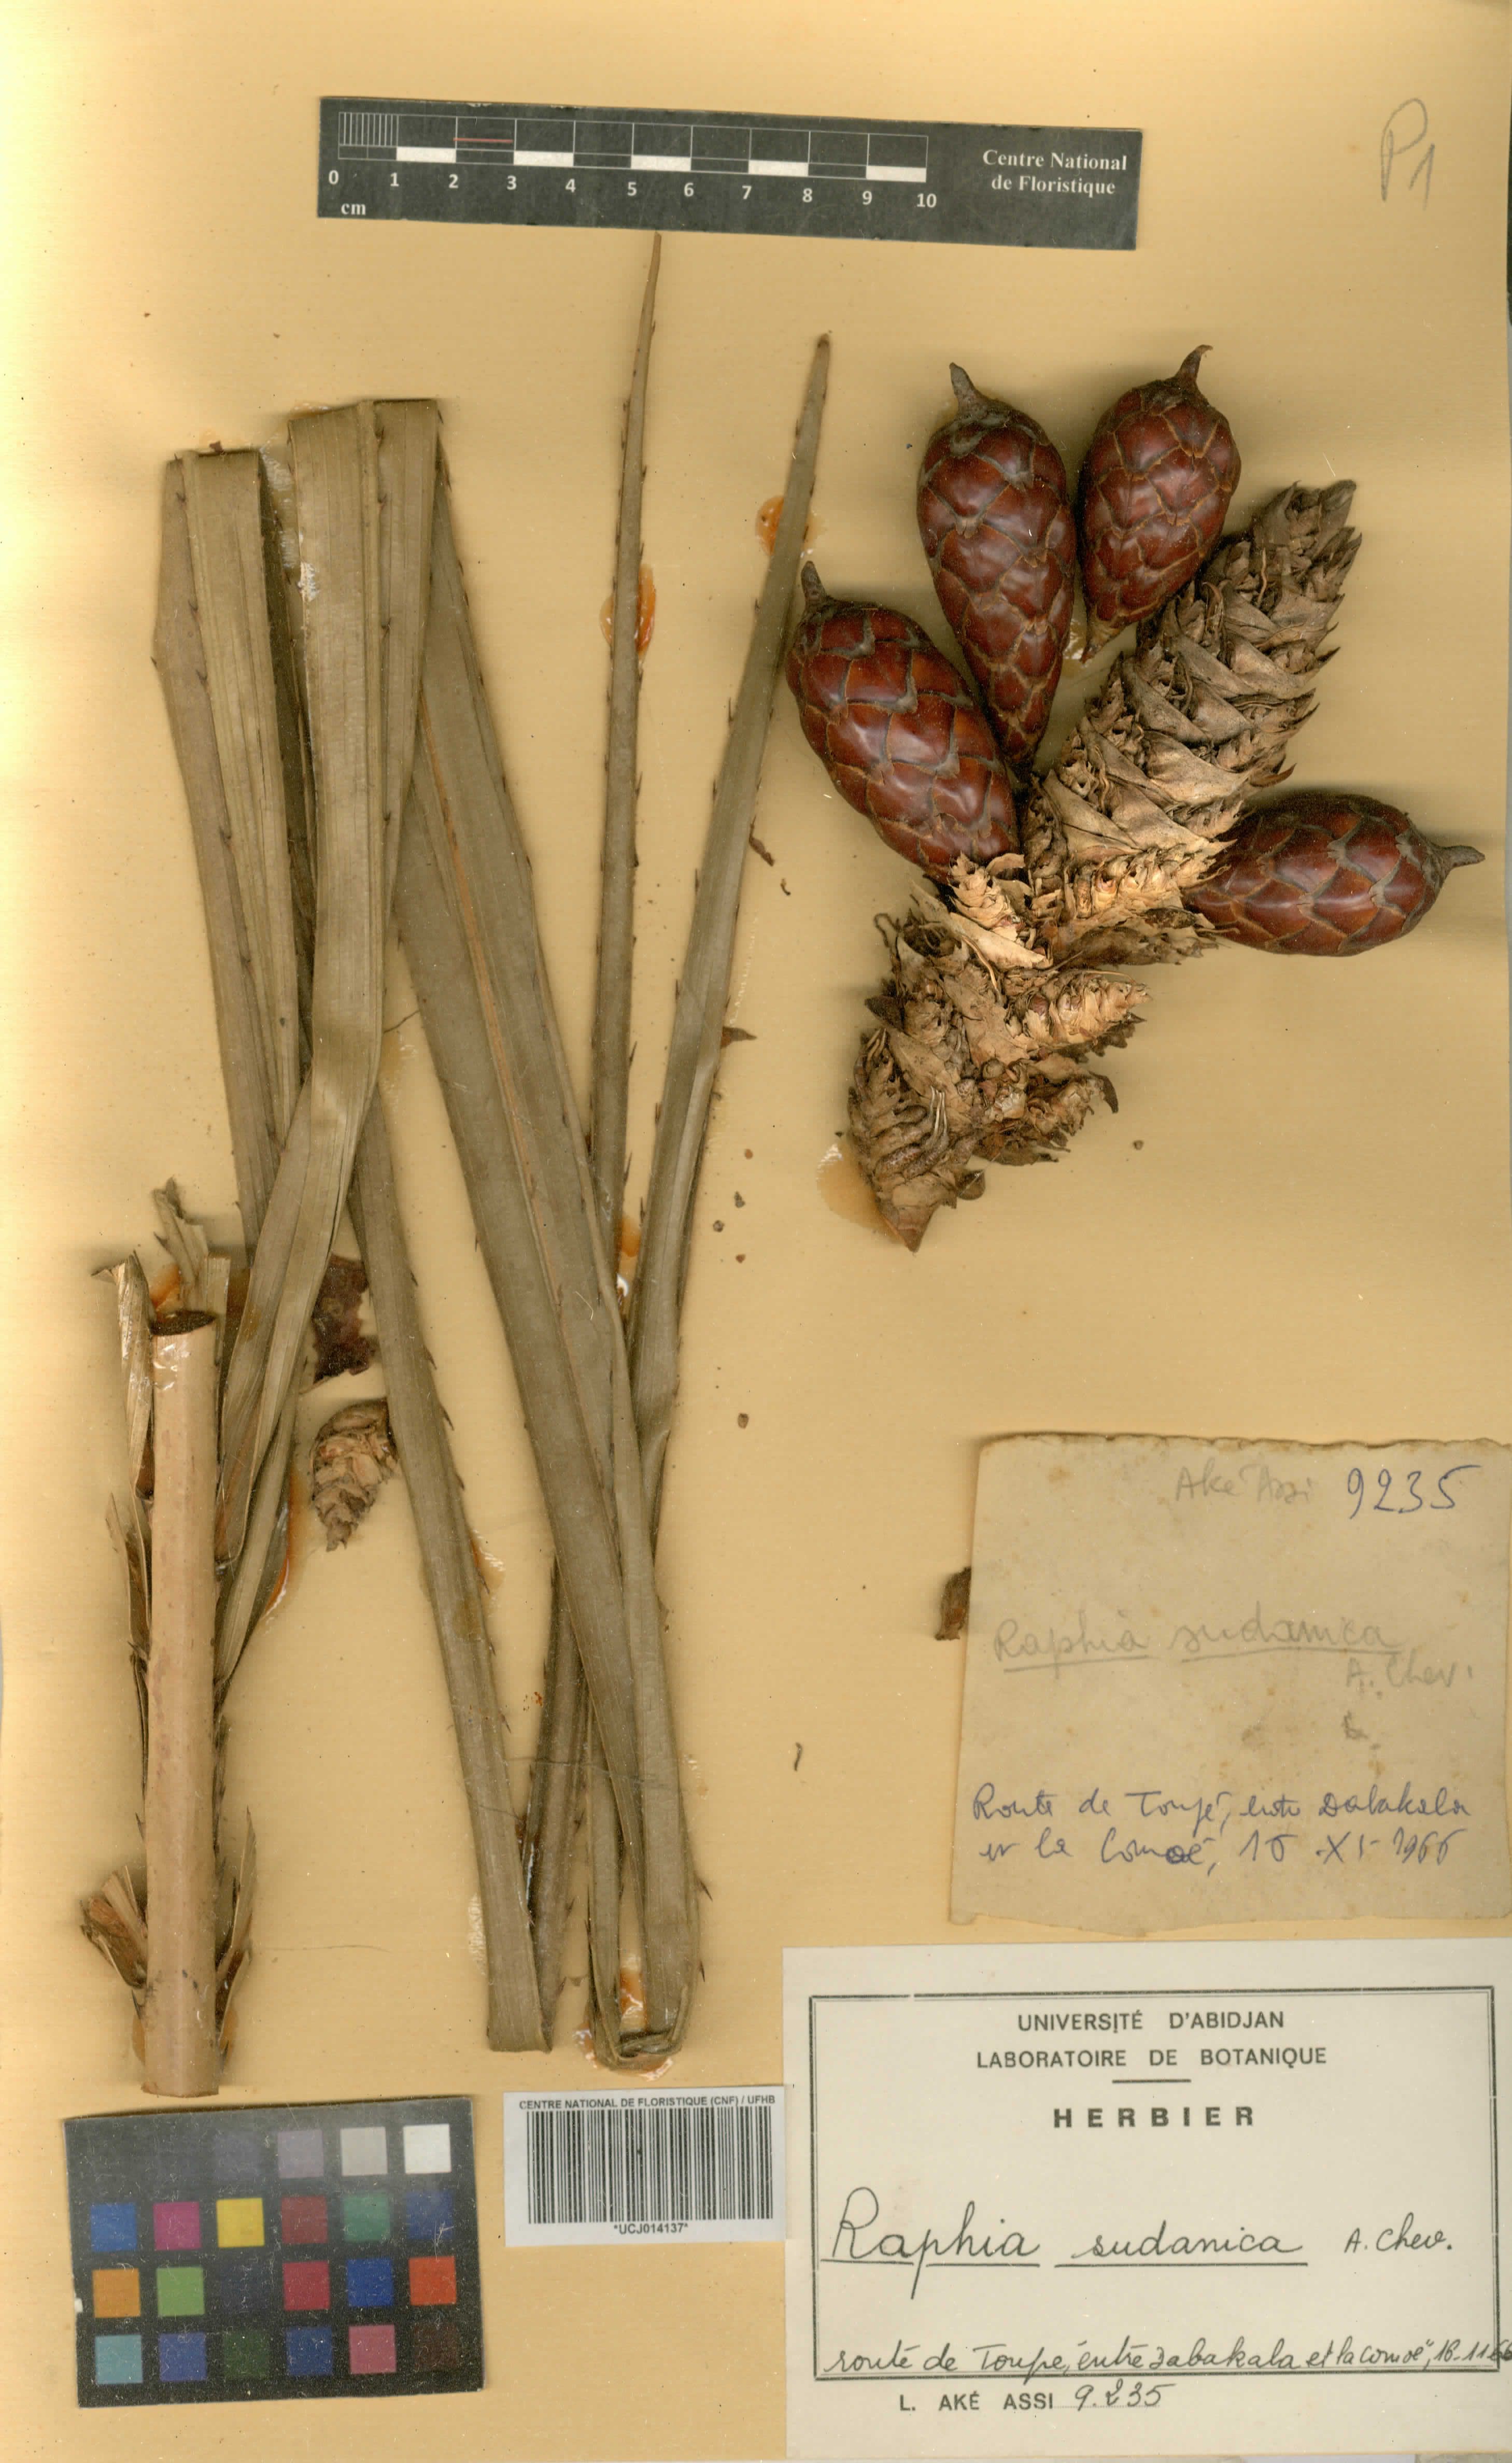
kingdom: Plantae
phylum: Tracheophyta
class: Liliopsida
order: Arecales
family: Arecaceae
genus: Raphia
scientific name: Raphia sudanica
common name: Northern raphia
